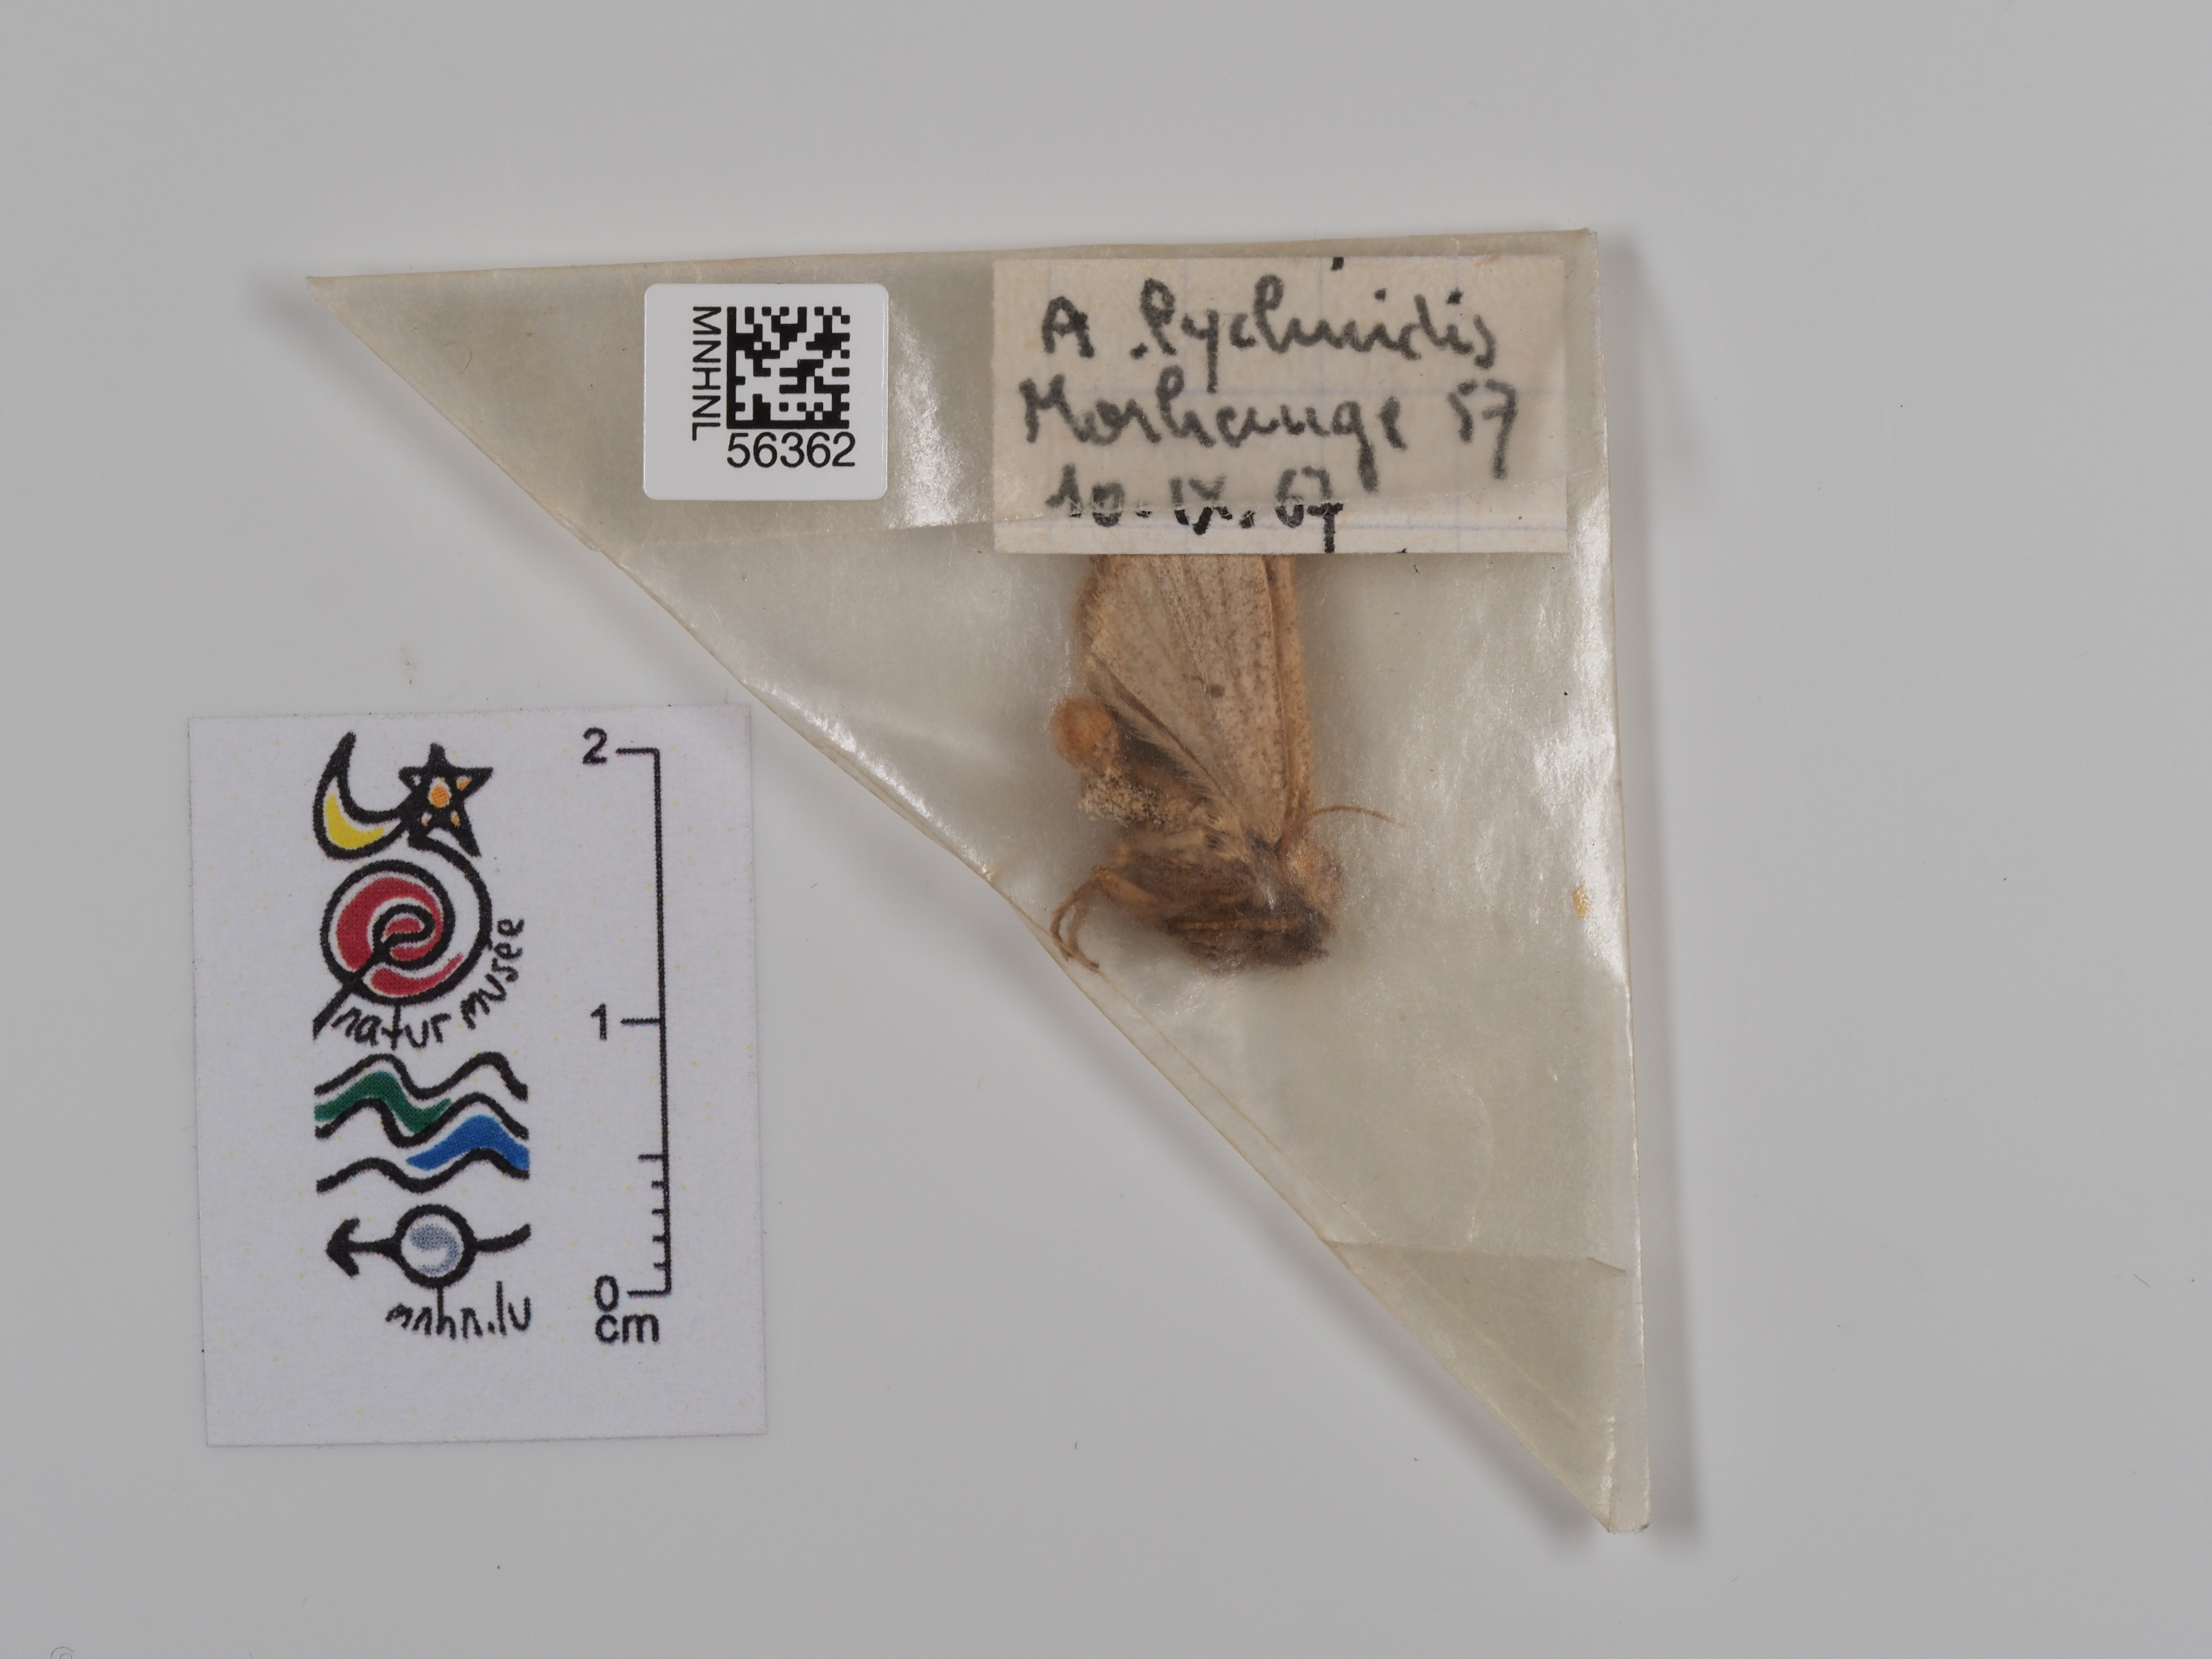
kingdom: Animalia
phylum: Arthropoda
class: Insecta
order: Lepidoptera
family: Noctuidae
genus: Agrochola
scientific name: Agrochola lychnidis
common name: Beaded chestnut
